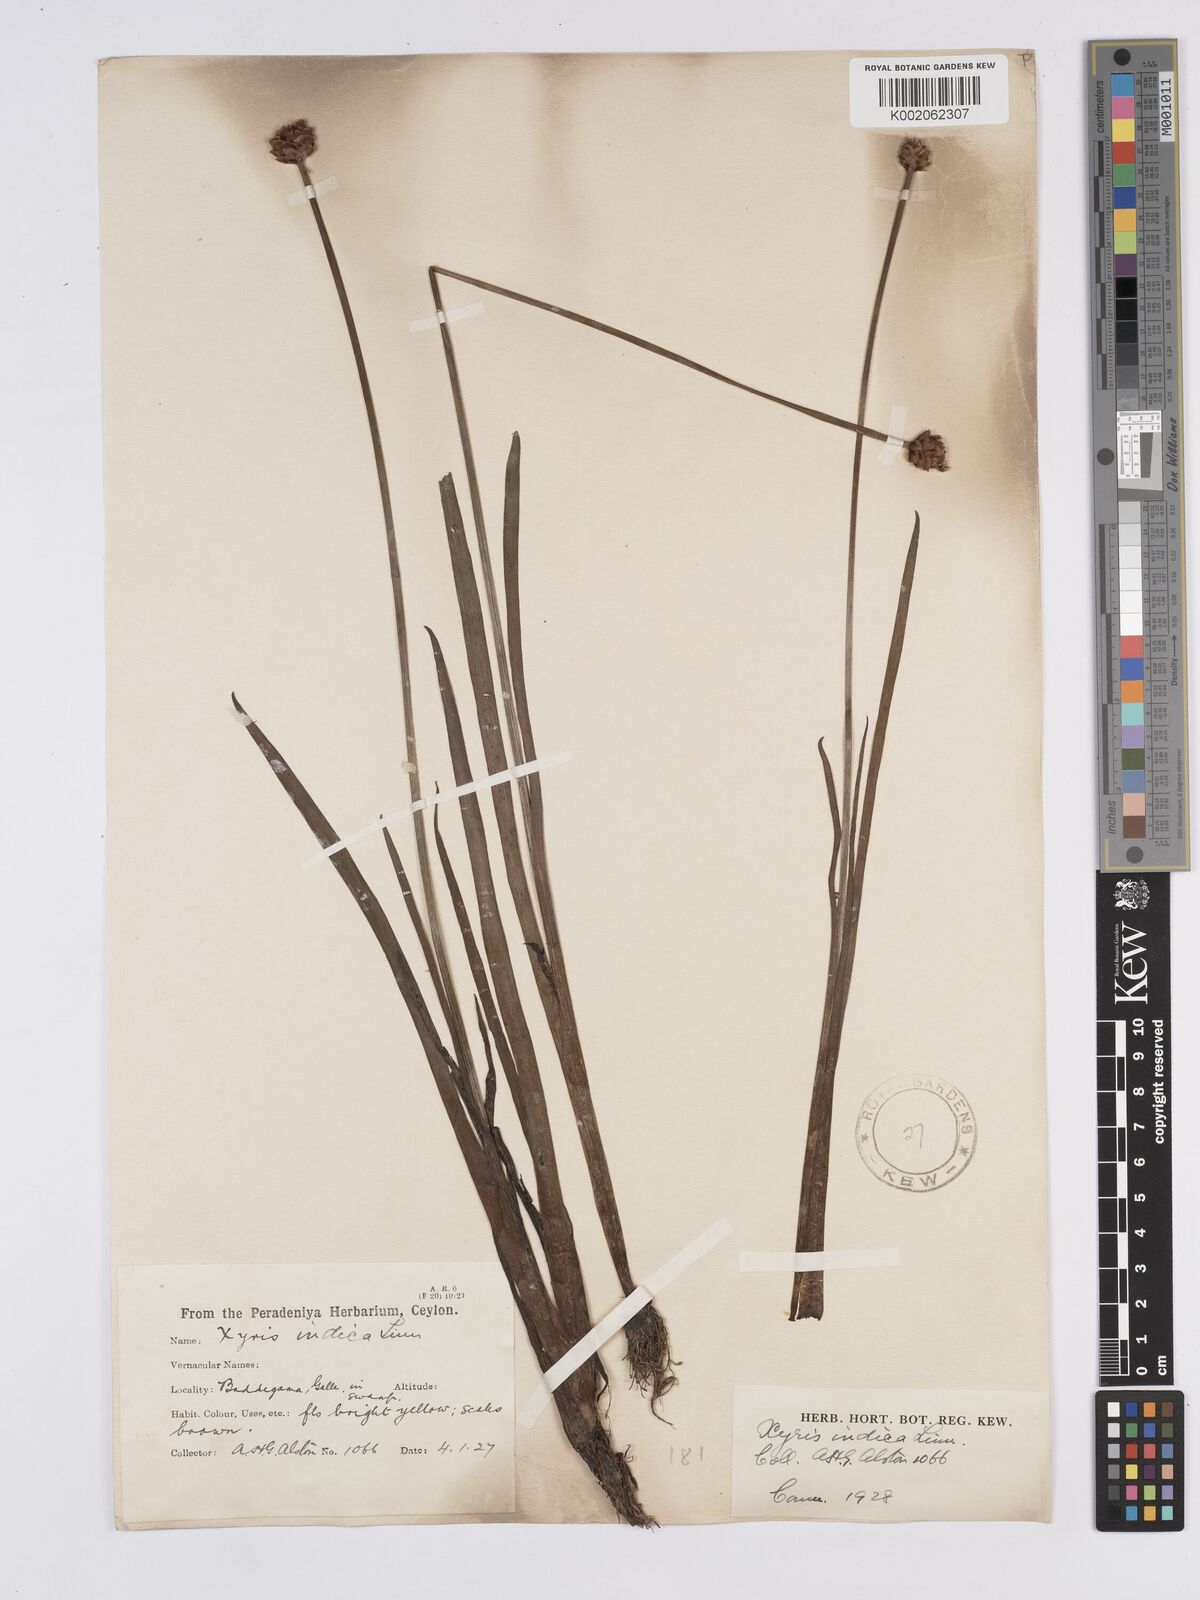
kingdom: Plantae
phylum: Tracheophyta
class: Liliopsida
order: Poales
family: Xyridaceae
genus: Xyris
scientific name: Xyris indica
